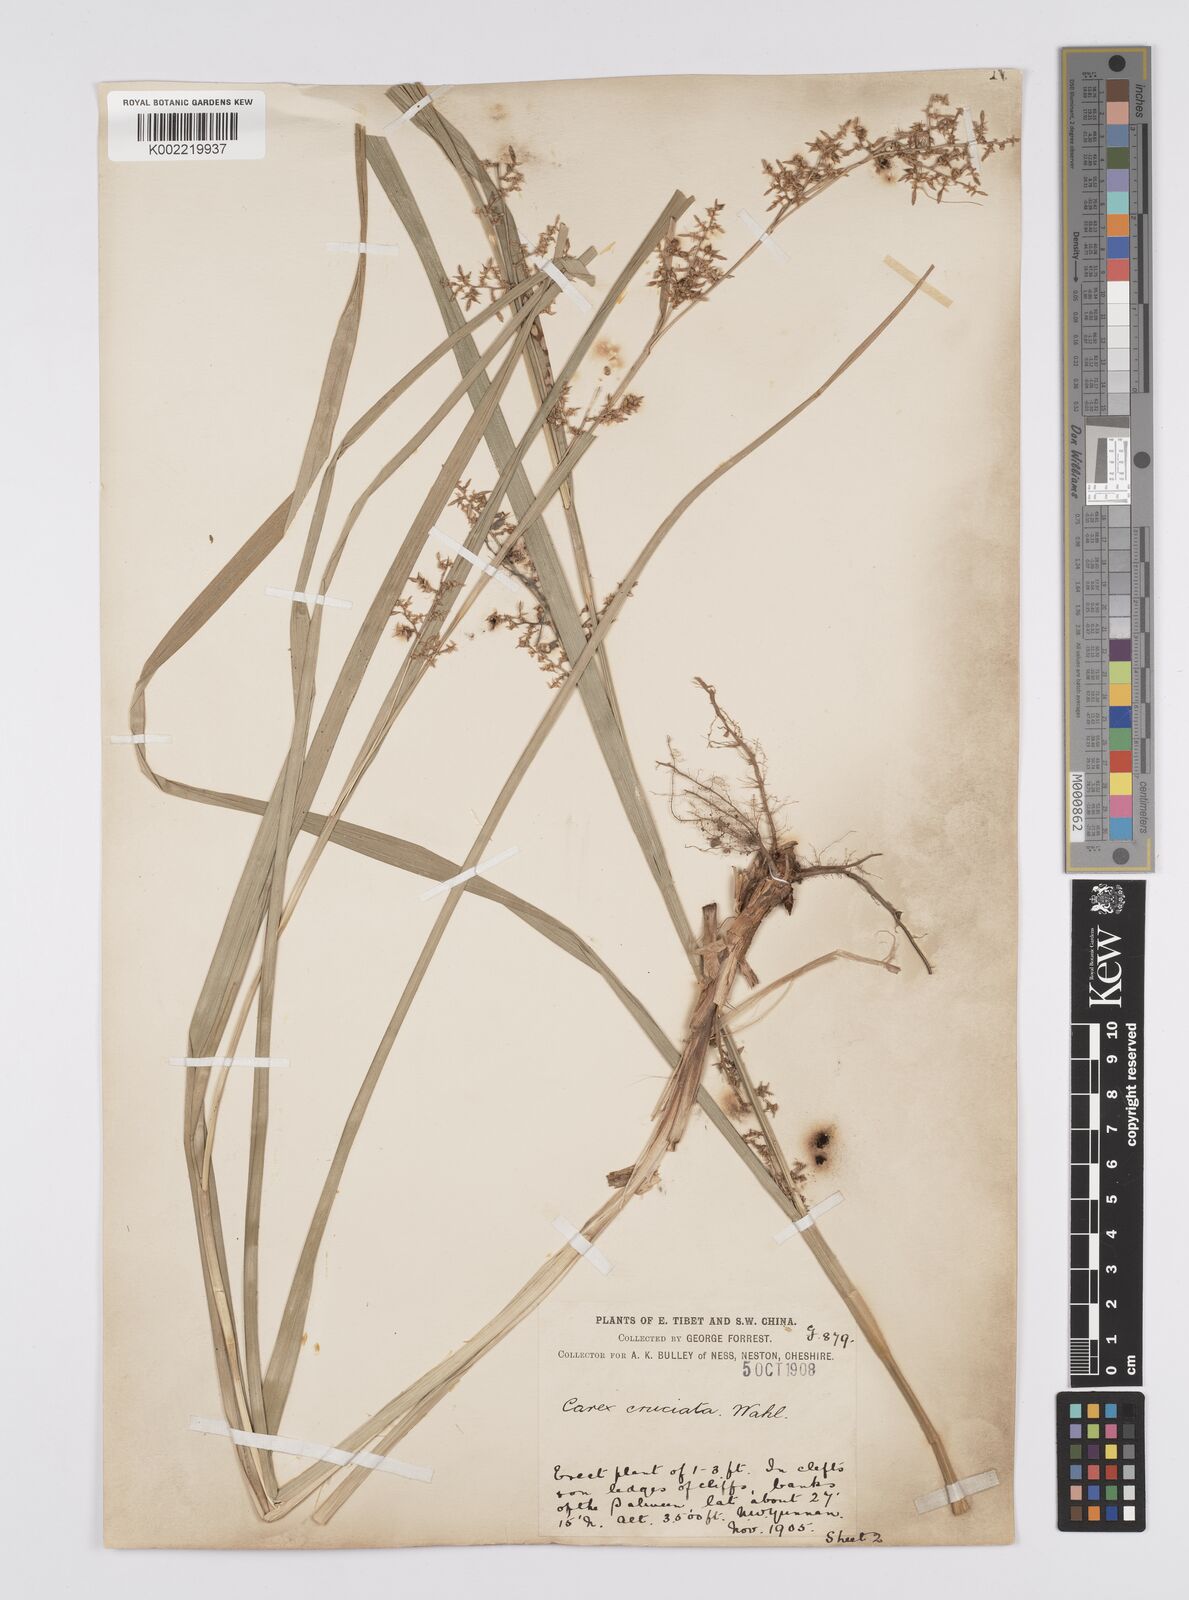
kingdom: Plantae
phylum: Tracheophyta
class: Liliopsida
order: Poales
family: Cyperaceae
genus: Carex
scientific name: Carex cruciata
